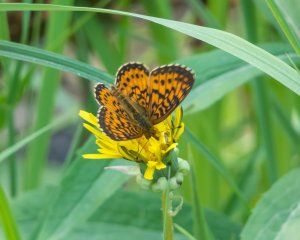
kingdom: Animalia
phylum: Arthropoda
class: Insecta
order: Lepidoptera
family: Nymphalidae
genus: Boloria
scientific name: Boloria selene
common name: Silver-bordered Fritillary
